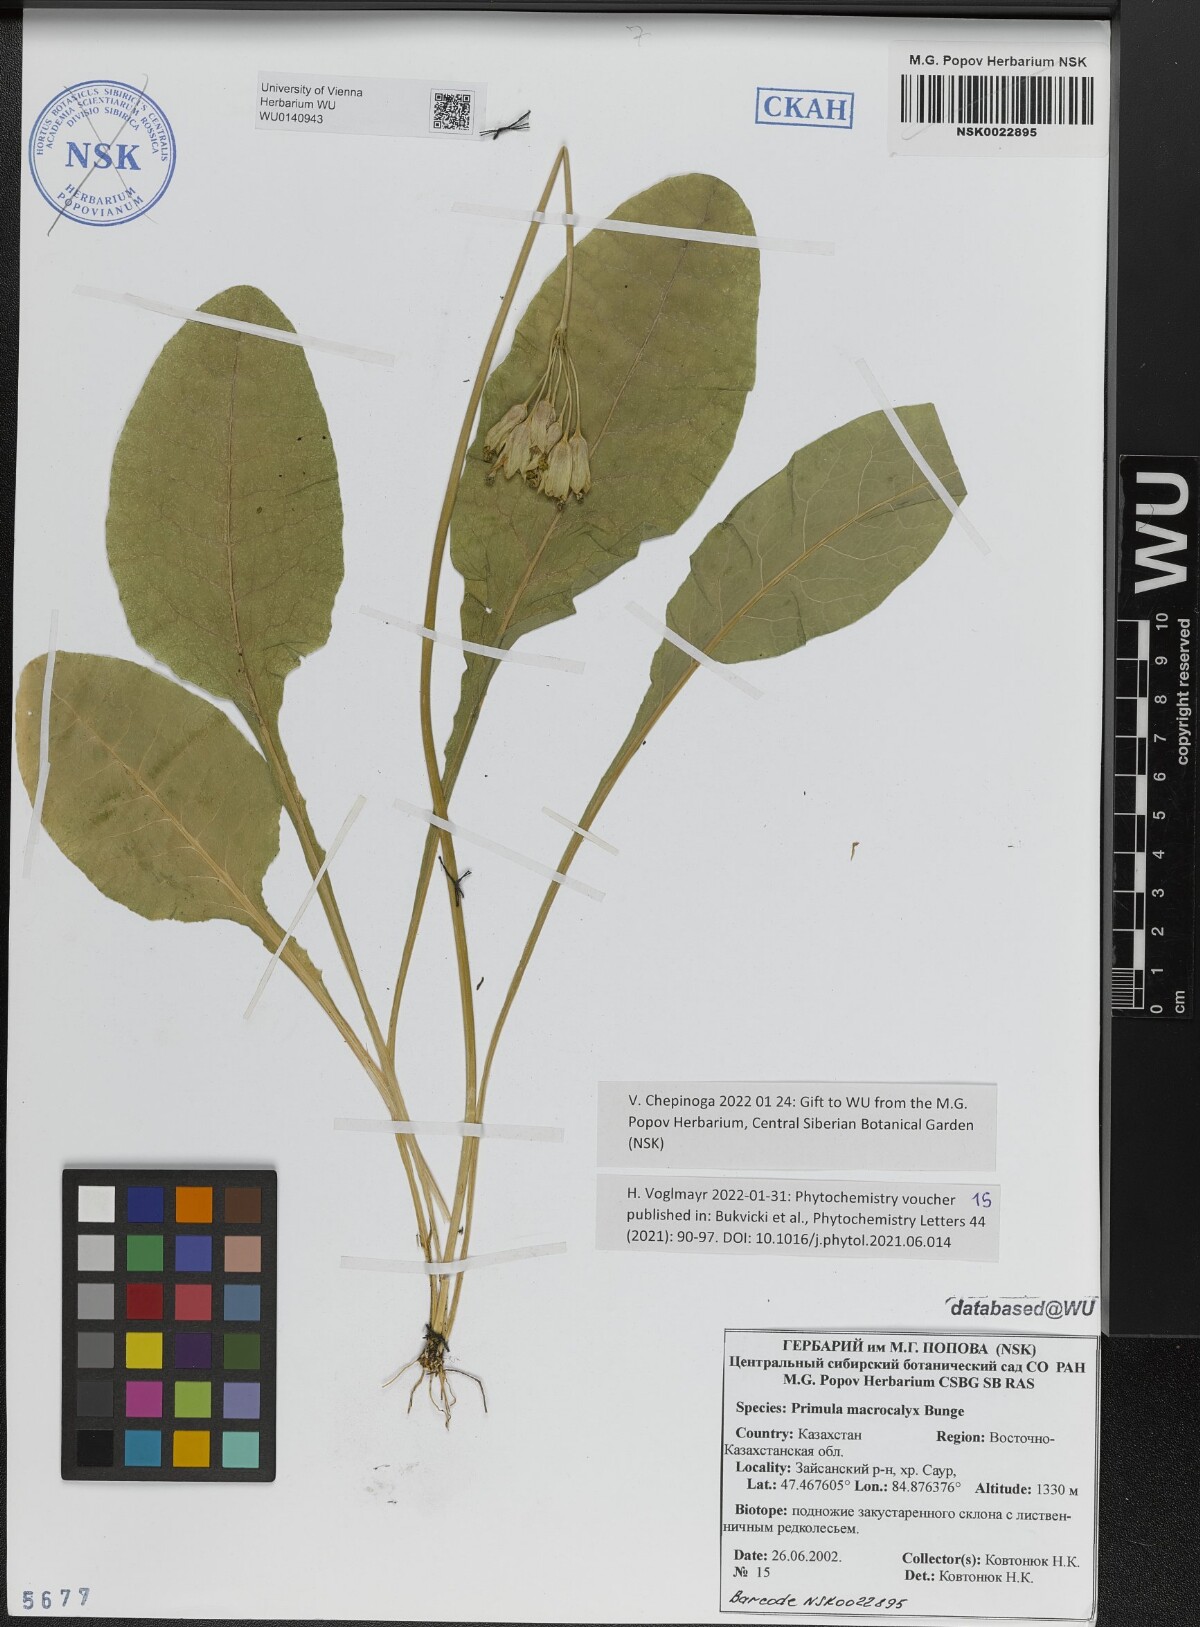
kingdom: Plantae
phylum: Tracheophyta
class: Magnoliopsida
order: Ericales
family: Primulaceae
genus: Primula
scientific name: Primula veris
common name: Cowslip
